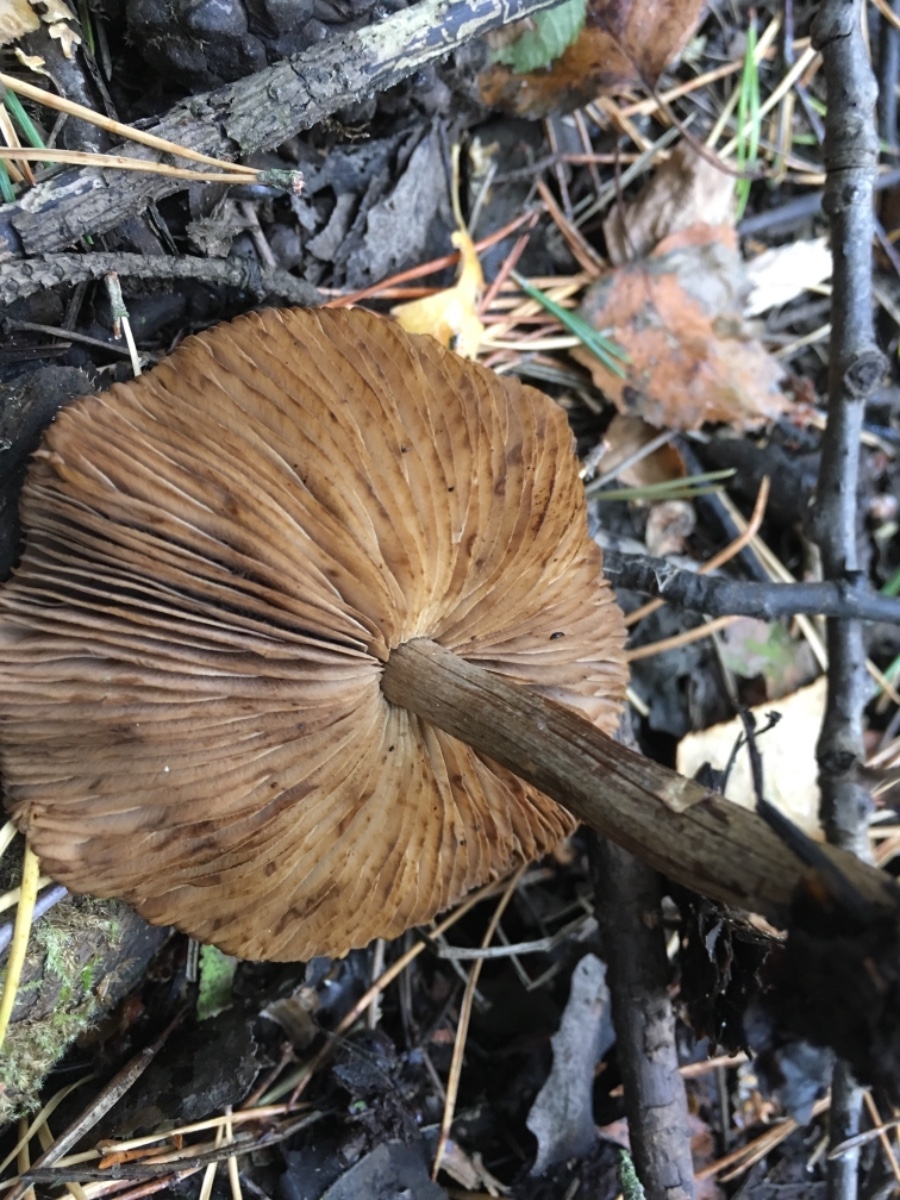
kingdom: Fungi
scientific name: Fungi
